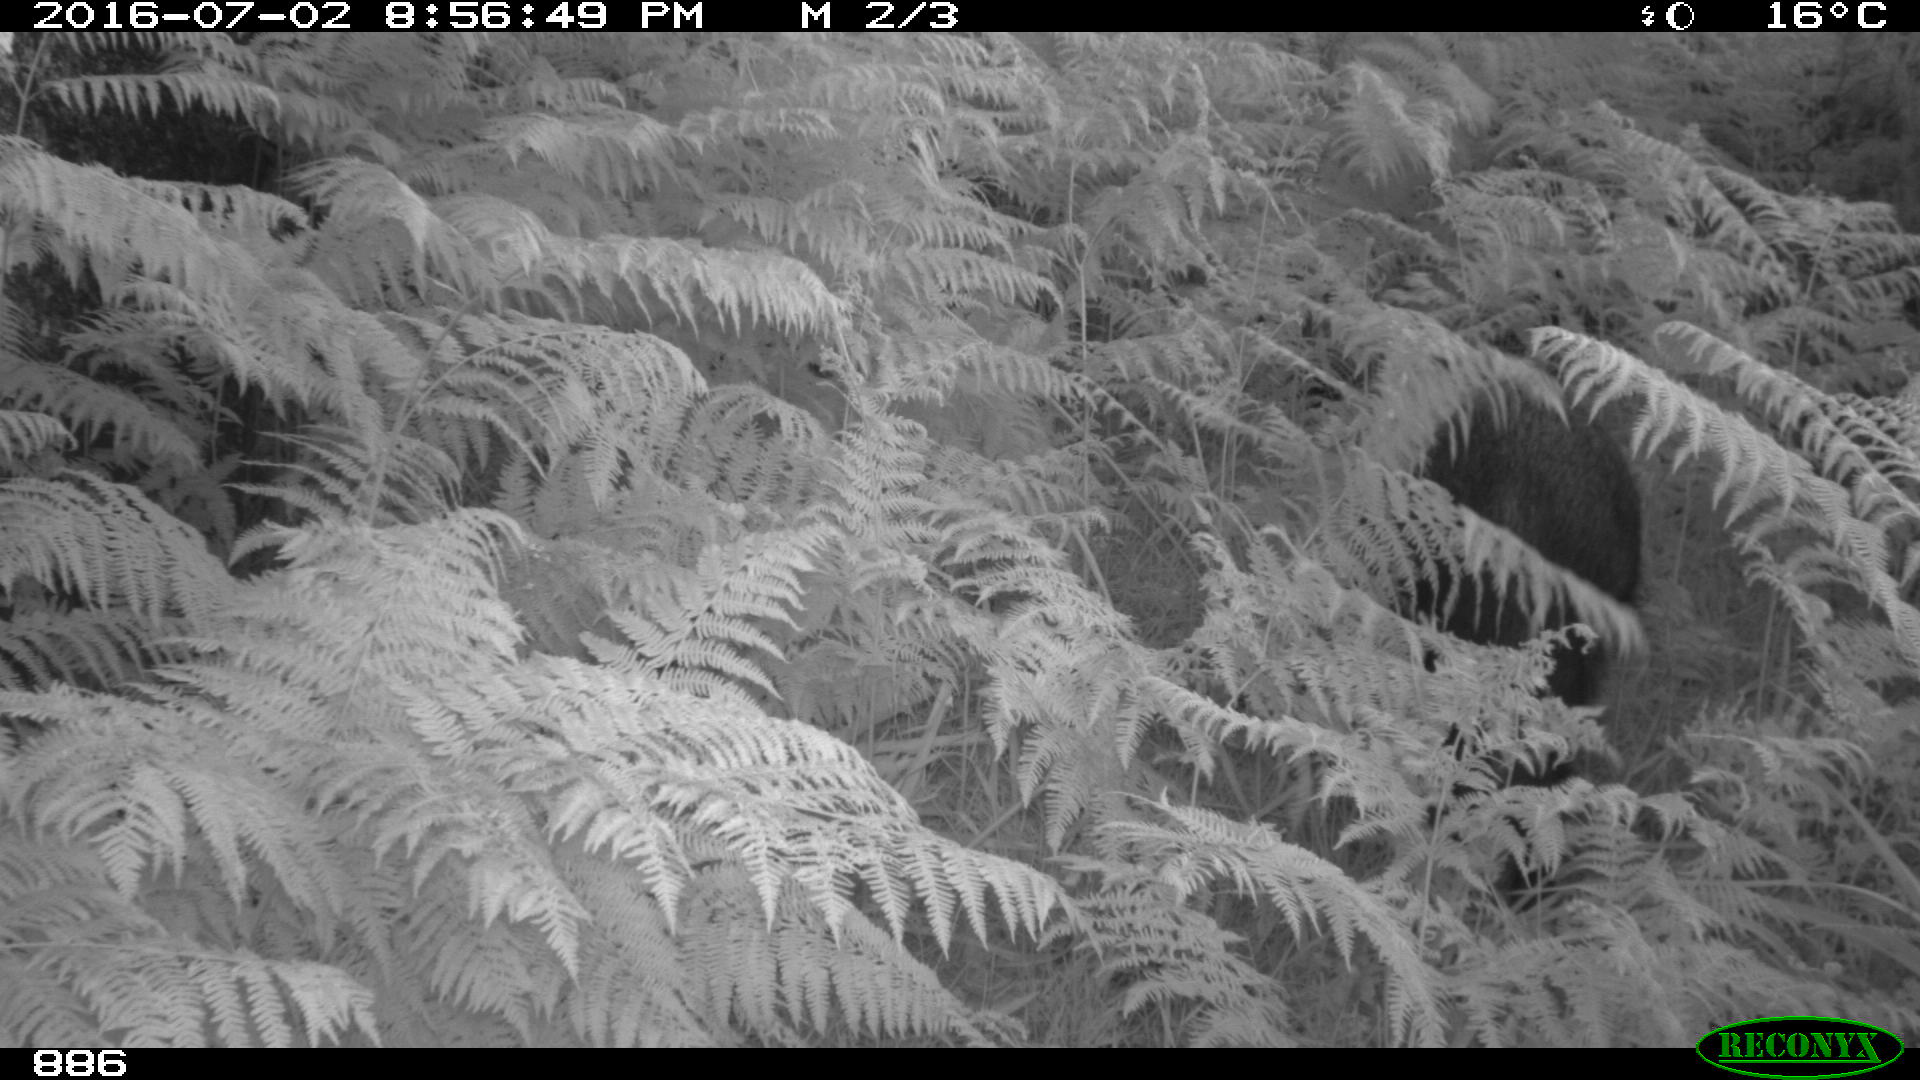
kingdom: Animalia
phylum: Chordata
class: Mammalia
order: Artiodactyla
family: Suidae
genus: Sus
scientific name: Sus scrofa
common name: Wild boar
